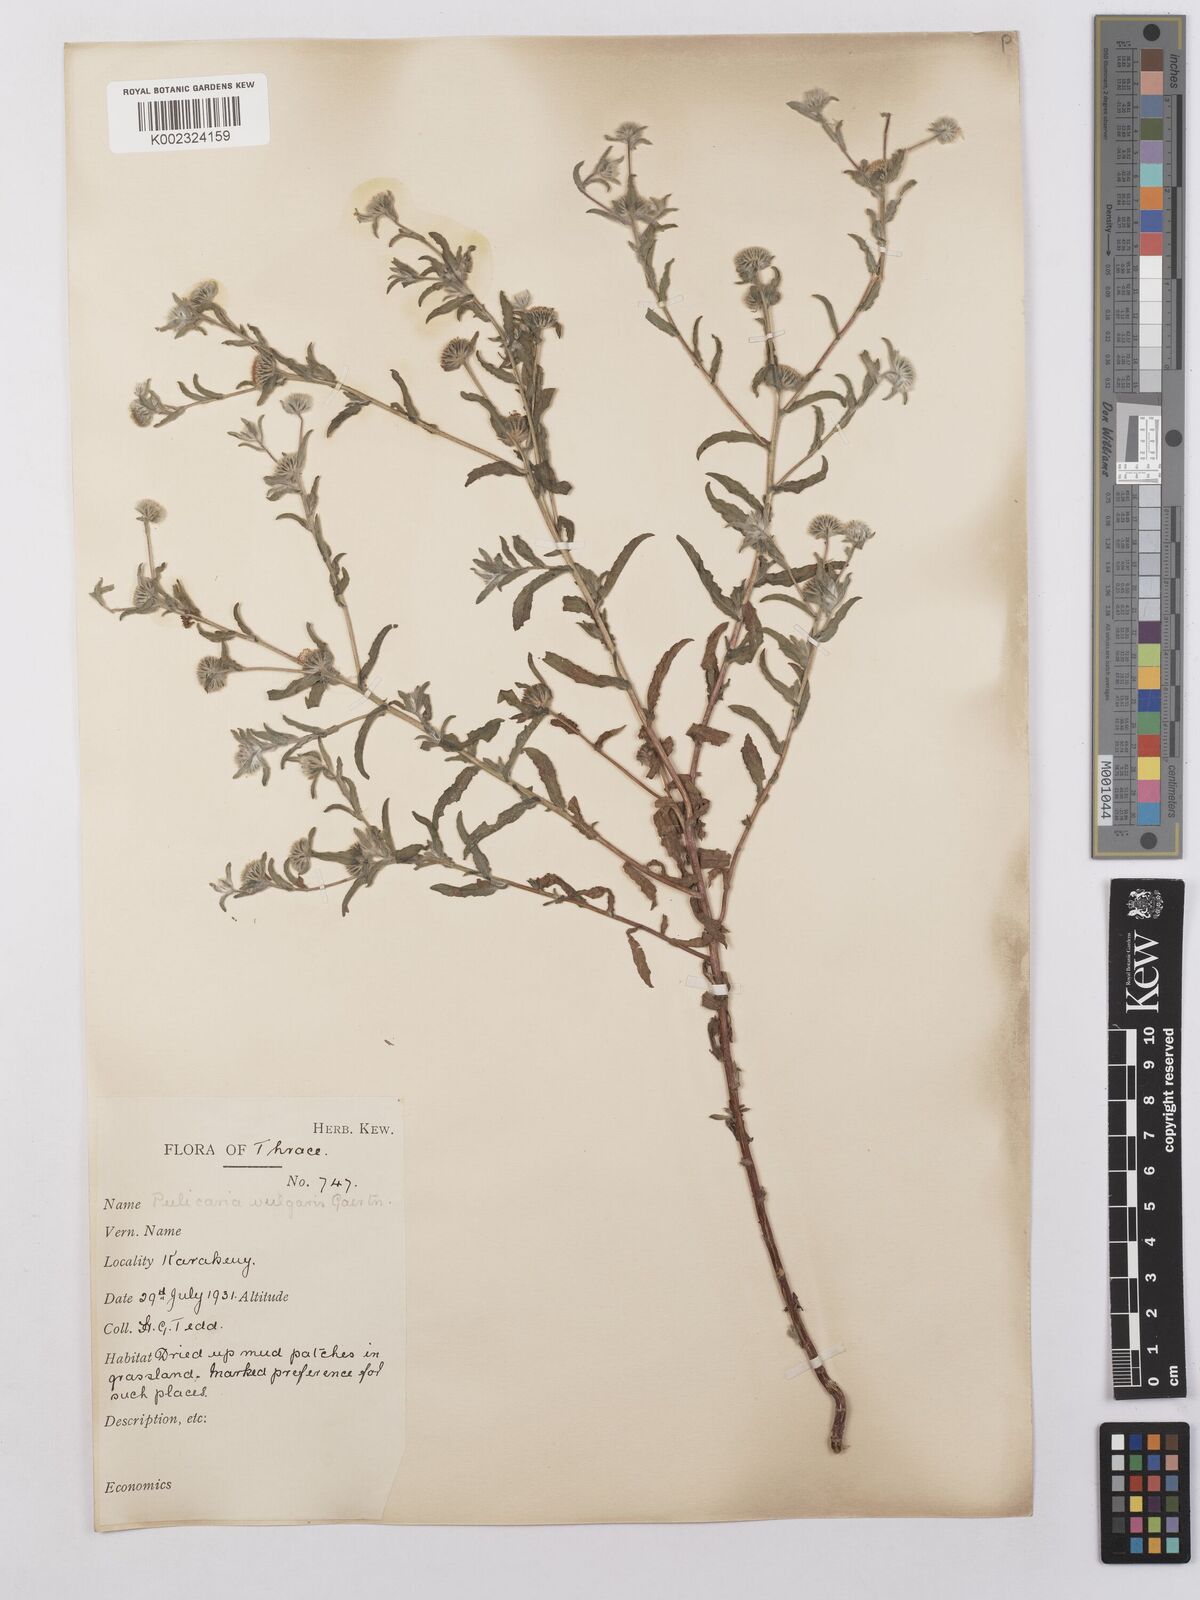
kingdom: Plantae
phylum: Tracheophyta
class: Magnoliopsida
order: Asterales
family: Asteraceae
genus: Pulicaria
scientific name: Pulicaria vulgaris
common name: Small fleabane
